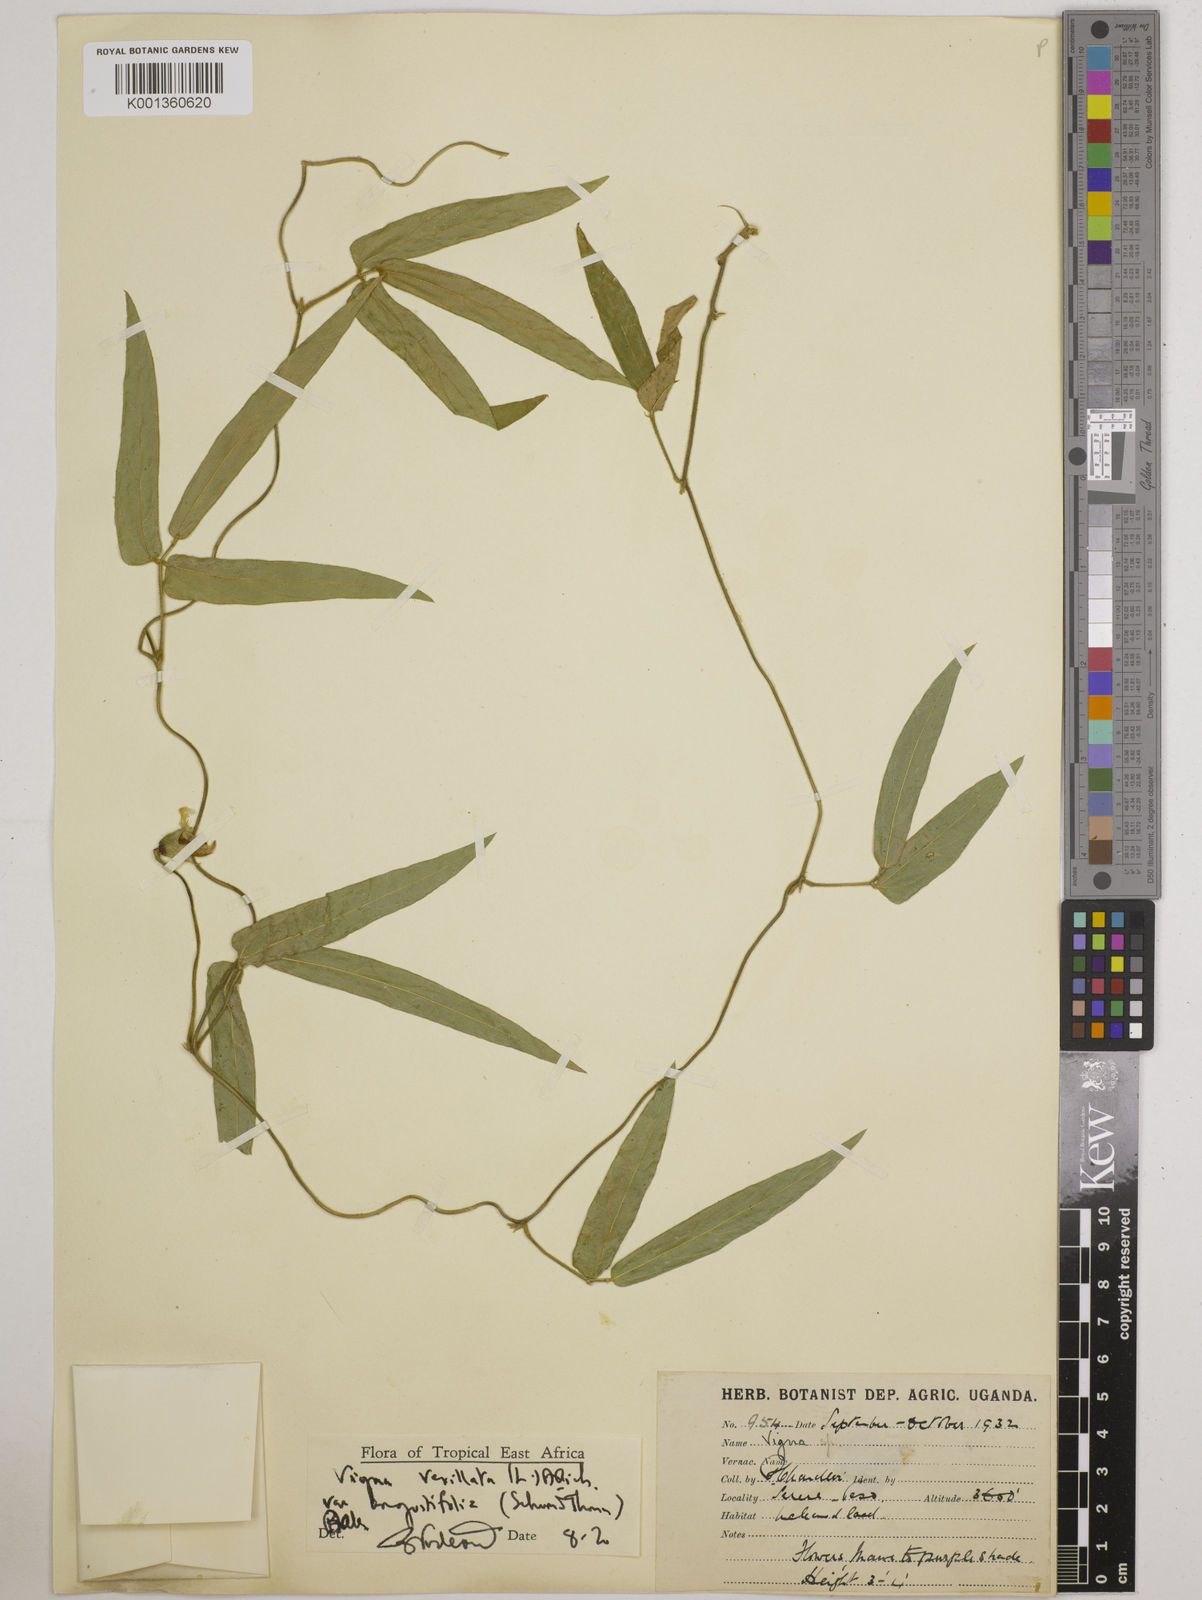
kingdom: Plantae
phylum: Tracheophyta
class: Magnoliopsida
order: Fabales
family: Fabaceae
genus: Vigna
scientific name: Vigna vexillata
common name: Zombi pea
